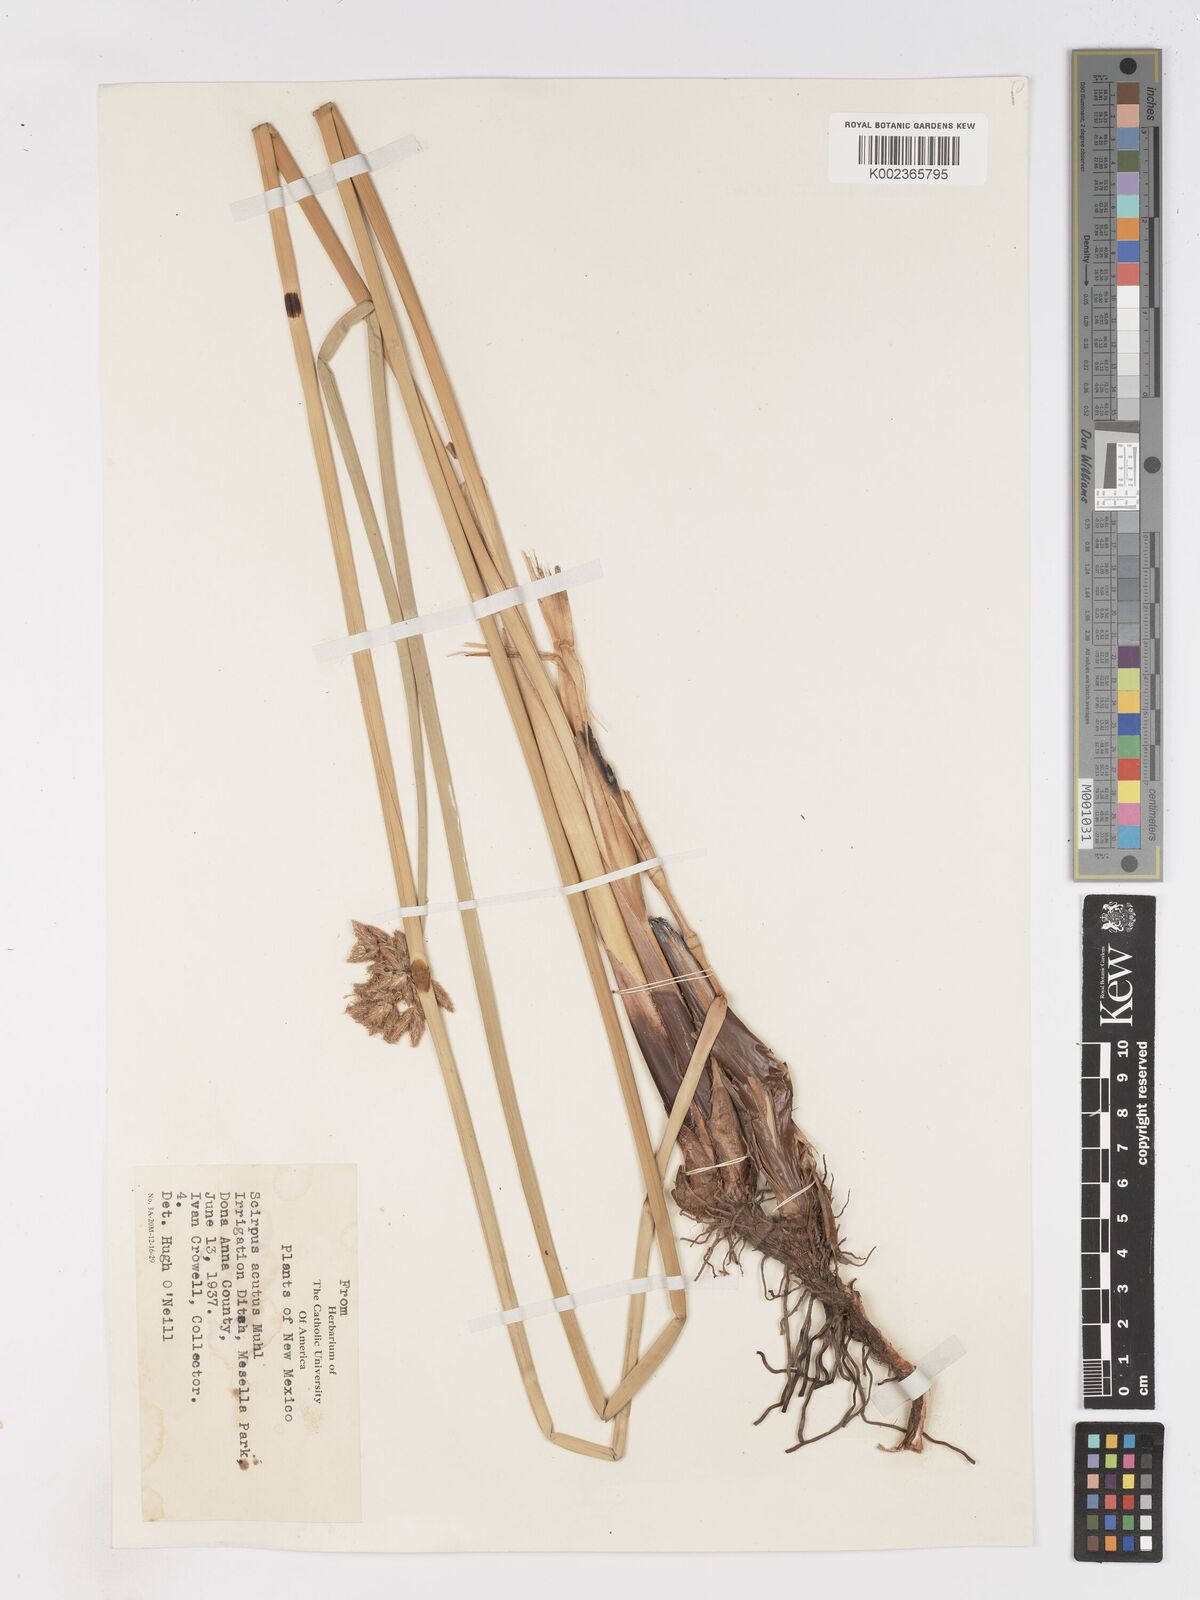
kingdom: Plantae
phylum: Tracheophyta
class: Liliopsida
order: Poales
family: Cyperaceae
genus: Schoenoplectus
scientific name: Schoenoplectus lacustris
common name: Common club-rush
